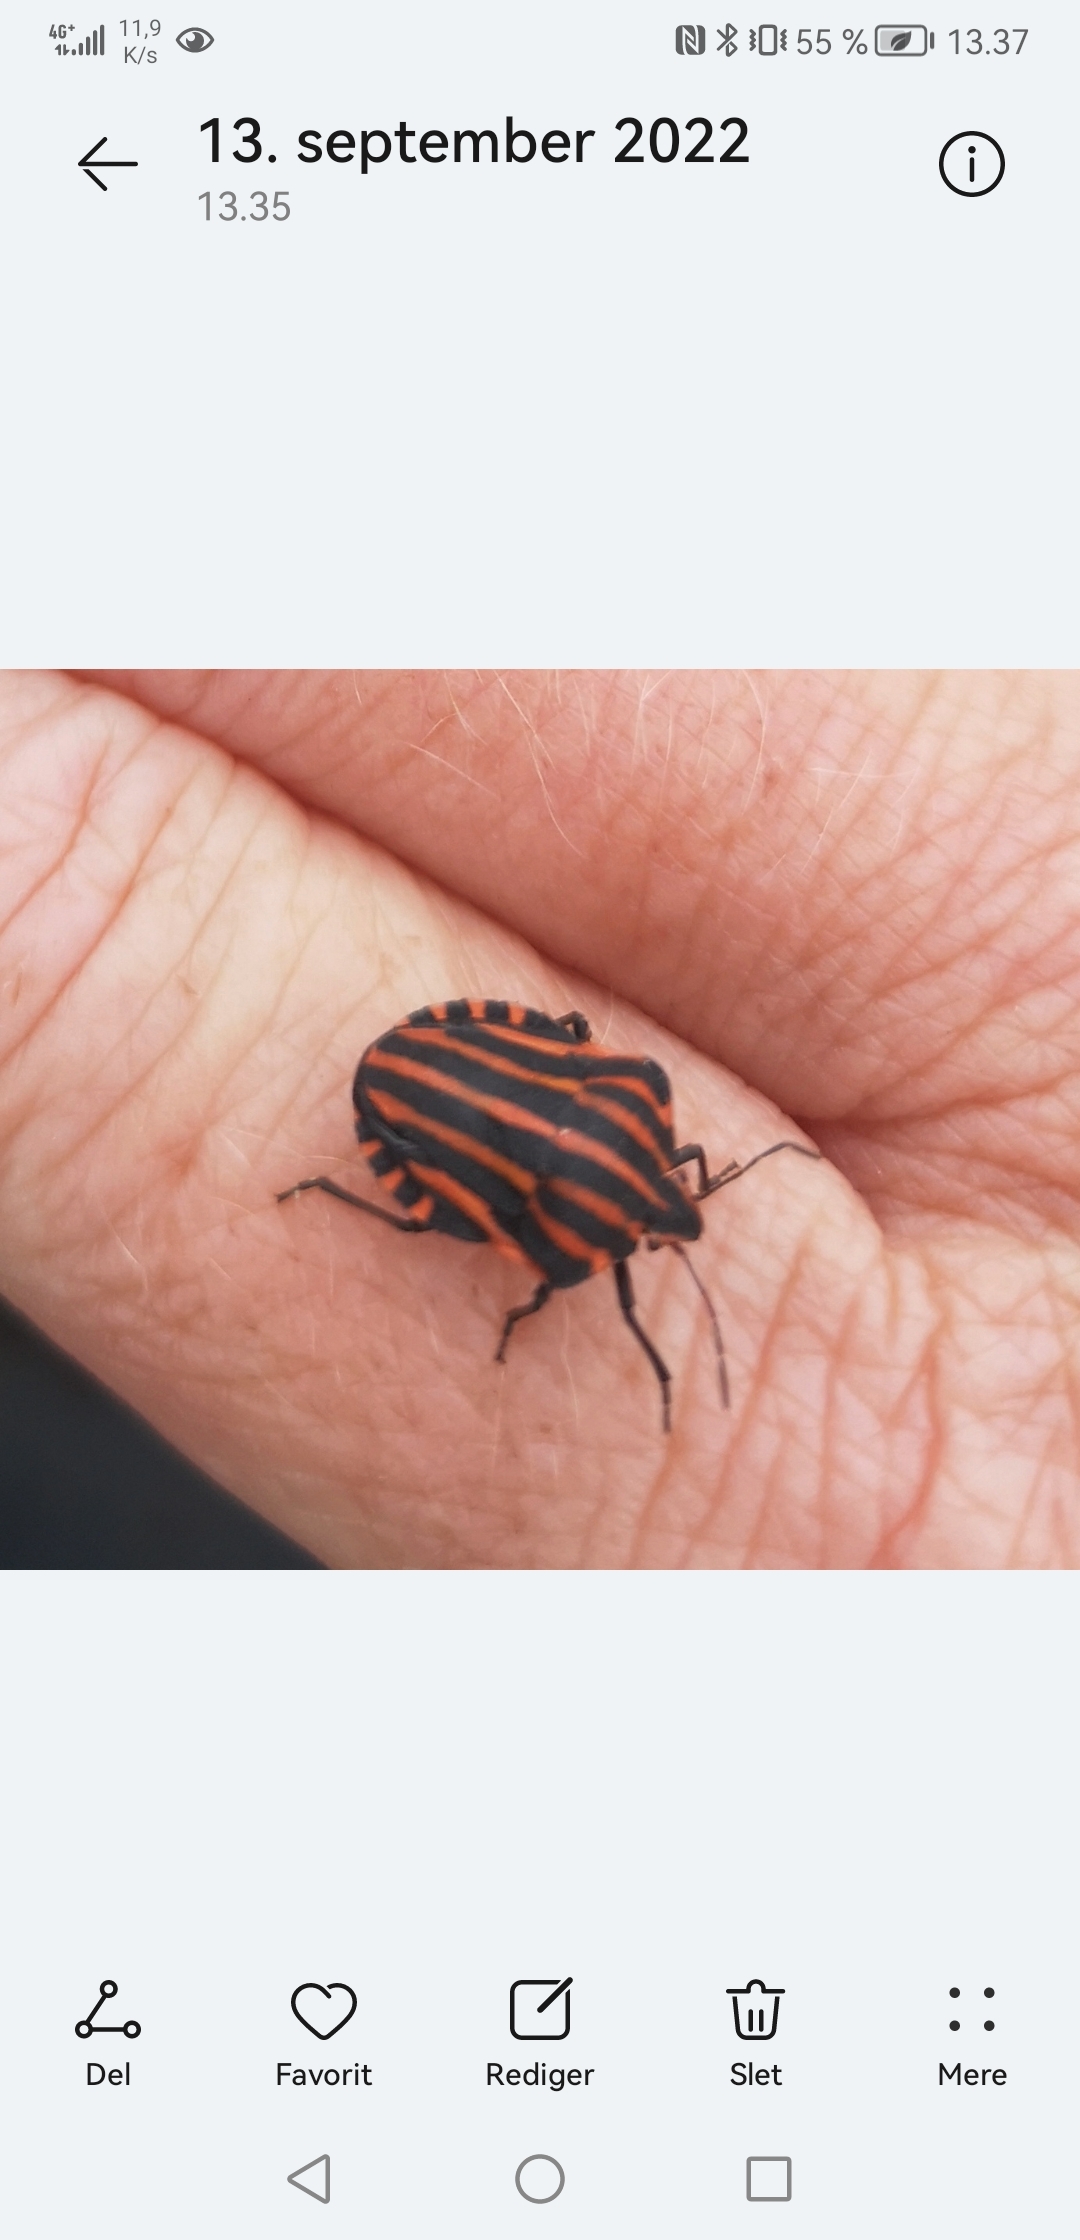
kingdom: Animalia
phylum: Arthropoda
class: Insecta
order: Hemiptera
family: Pentatomidae
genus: Graphosoma
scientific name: Graphosoma italicum
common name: Stribetæge
